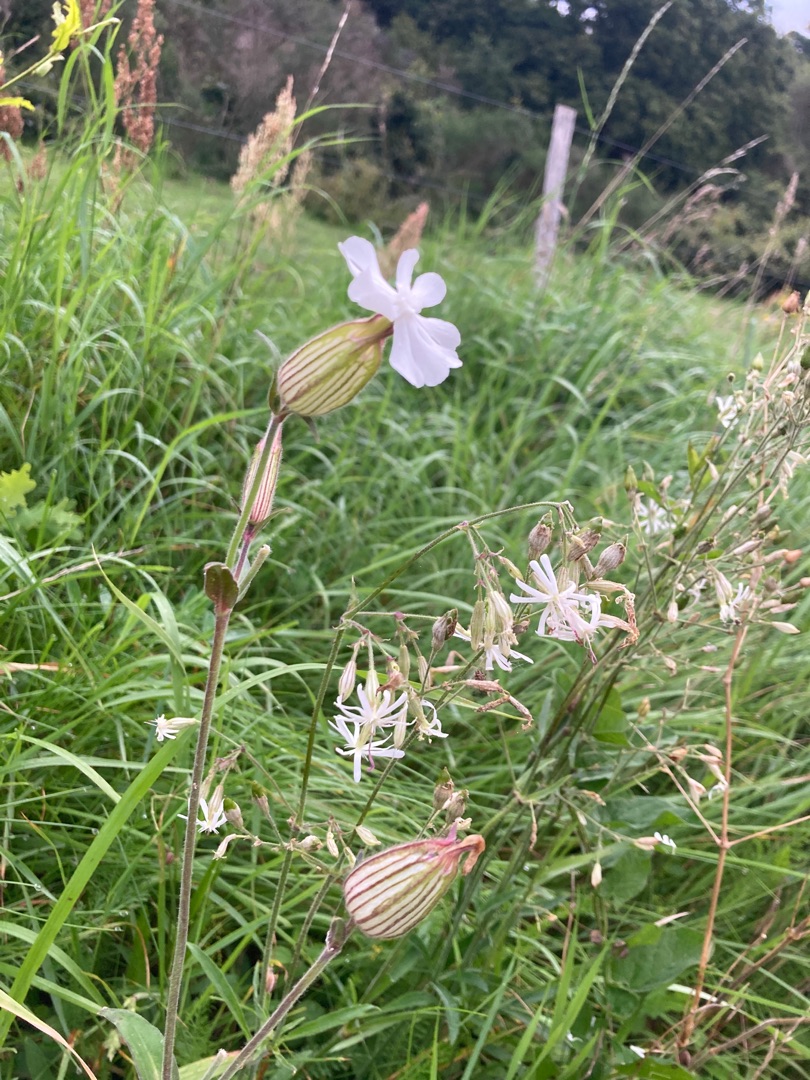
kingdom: Plantae
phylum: Tracheophyta
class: Magnoliopsida
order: Caryophyllales
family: Caryophyllaceae
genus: Silene
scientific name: Silene latifolia
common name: Aftenpragtstjerne
